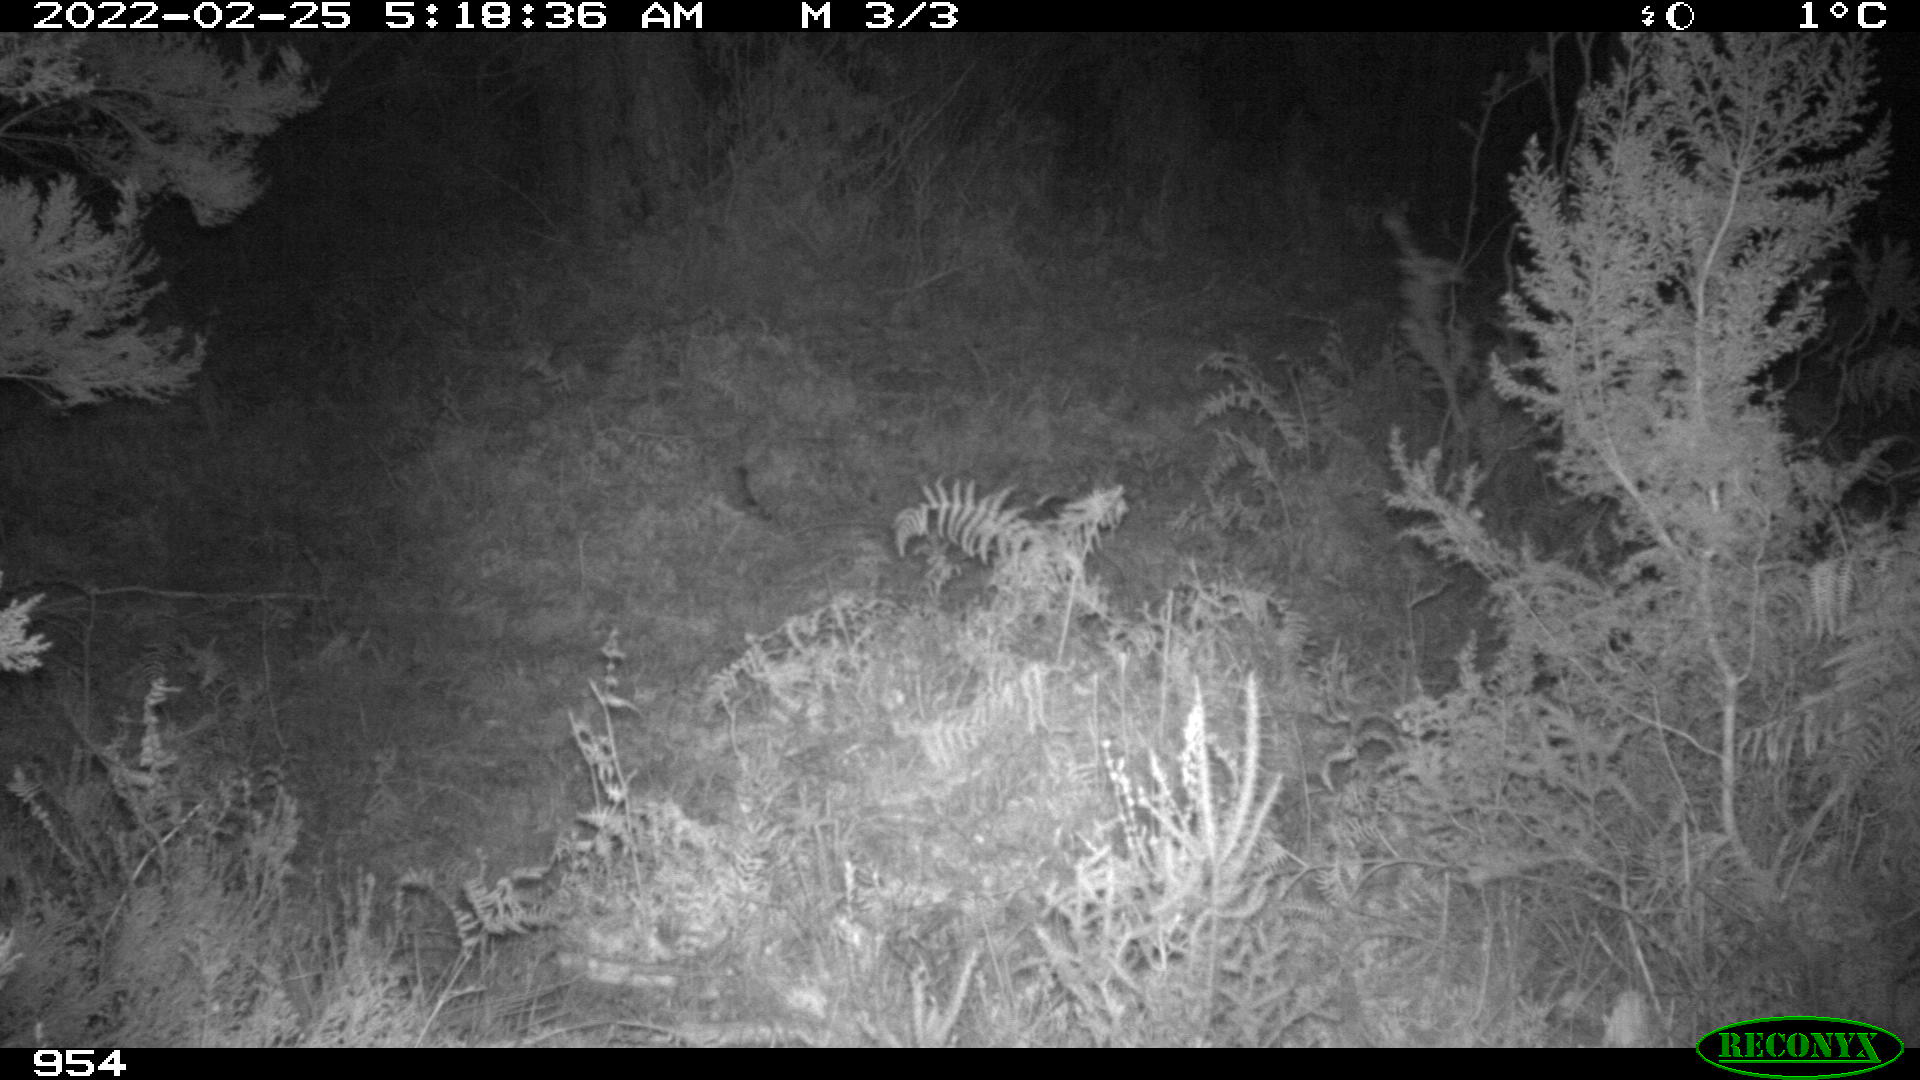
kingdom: Animalia
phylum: Chordata
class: Mammalia
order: Perissodactyla
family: Equidae
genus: Equus
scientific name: Equus caballus
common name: Horse
